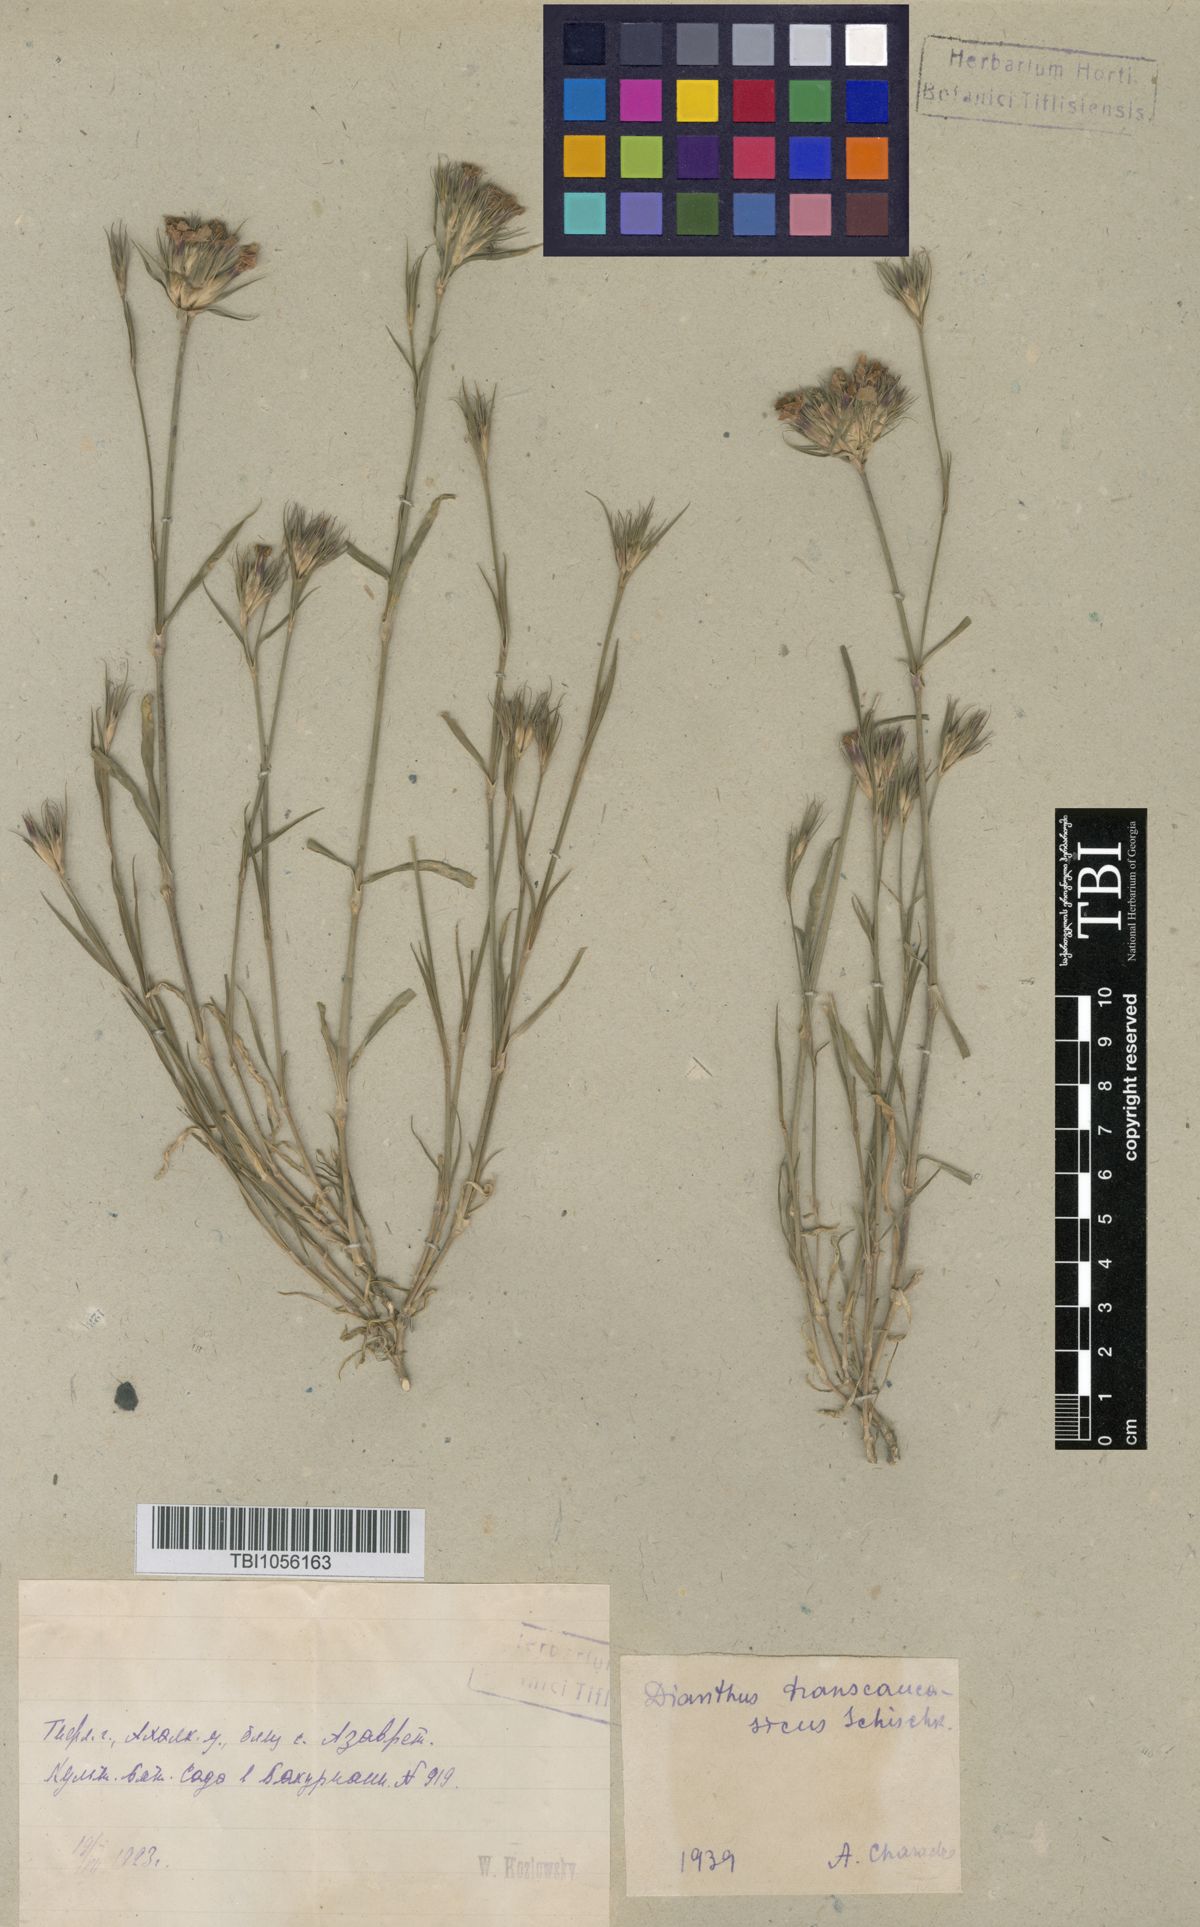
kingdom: Plantae
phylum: Tracheophyta
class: Magnoliopsida
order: Caryophyllales
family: Caryophyllaceae
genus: Dianthus
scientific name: Dianthus masmenaeus
